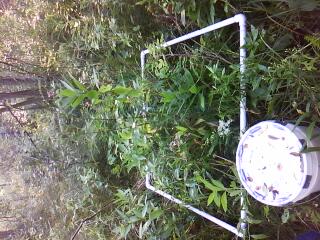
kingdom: Plantae
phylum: Tracheophyta
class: Polypodiopsida
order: Polypodiales
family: Thelypteridaceae
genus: Thelypteris
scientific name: Thelypteris palustris
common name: Marsh fern
